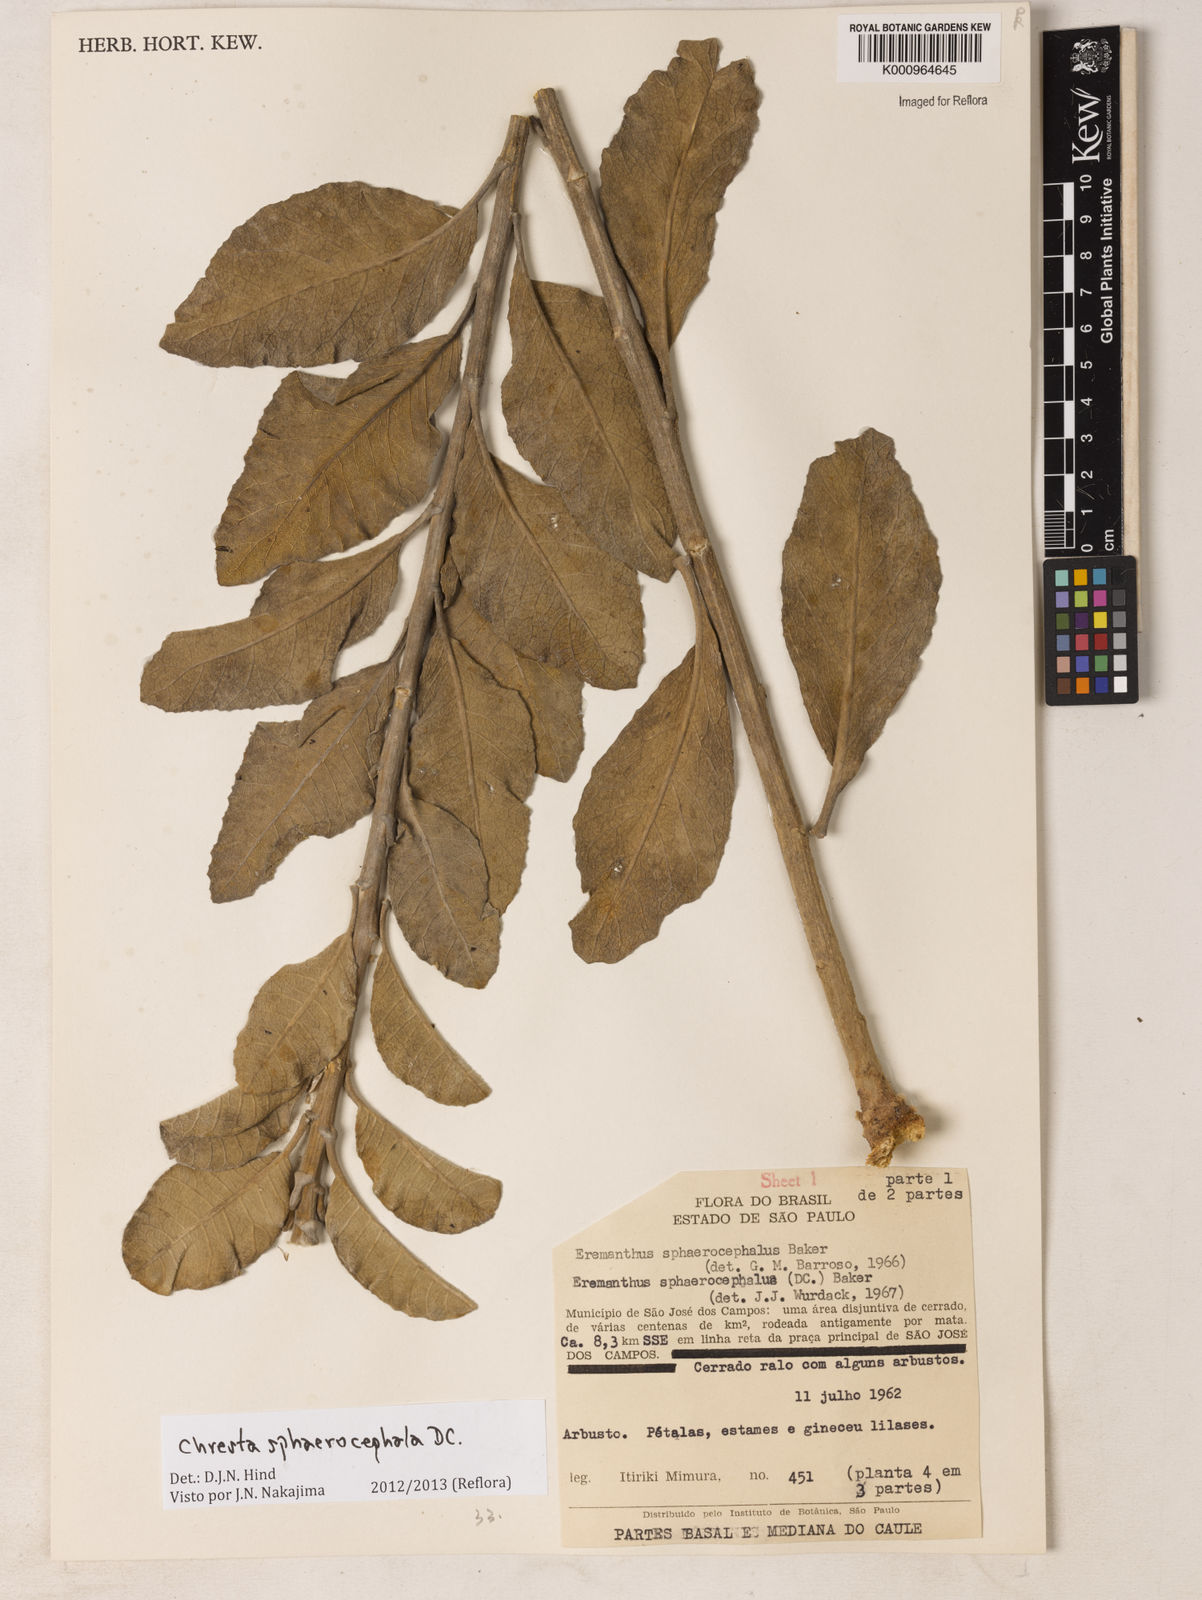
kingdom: Plantae
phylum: Tracheophyta
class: Magnoliopsida
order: Asterales
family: Asteraceae
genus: Chresta
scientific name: Chresta sphaerocephala
